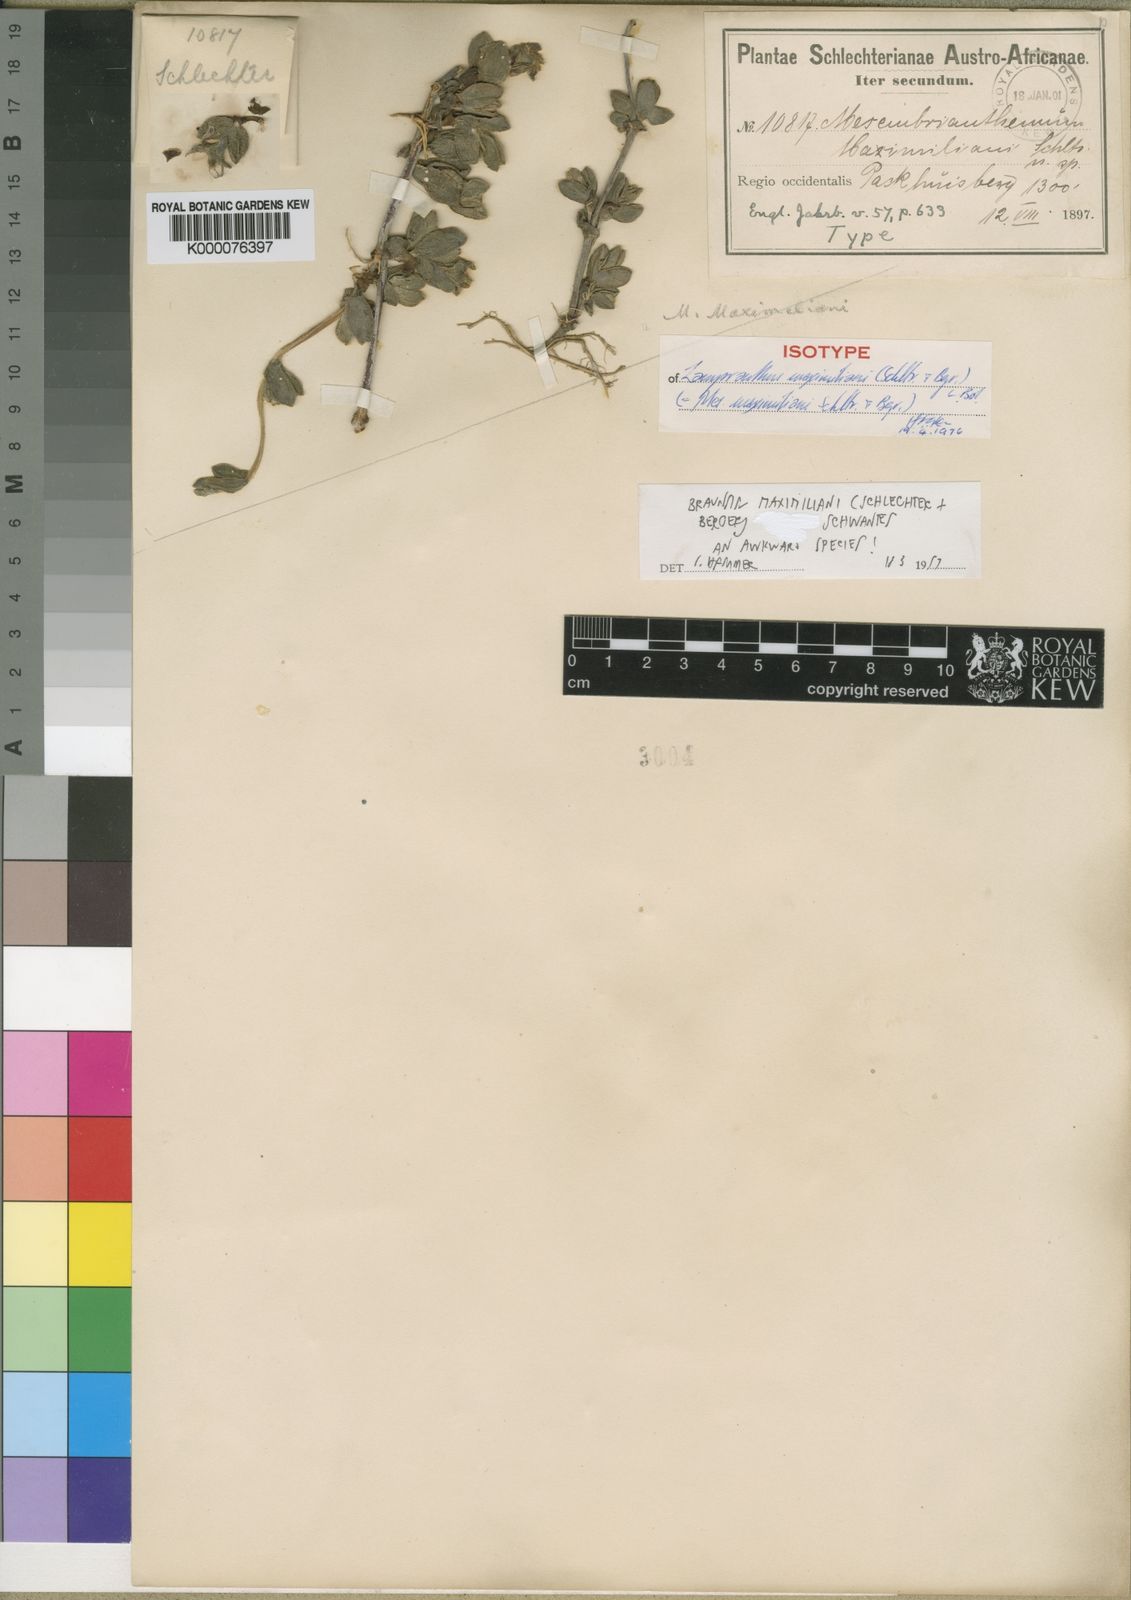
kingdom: Plantae
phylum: Tracheophyta
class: Magnoliopsida
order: Caryophyllales
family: Aizoaceae
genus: Braunsia
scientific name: Braunsia maximiliani
